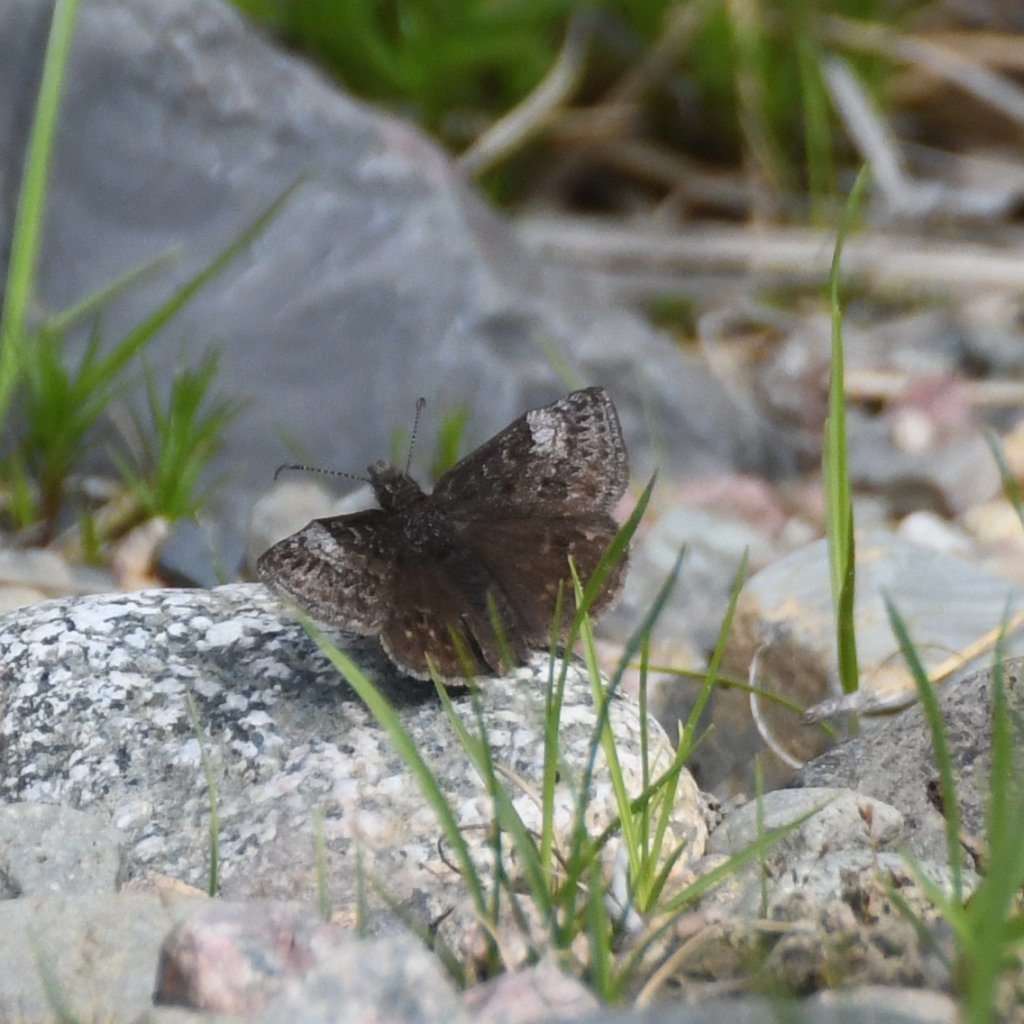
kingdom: Animalia
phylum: Arthropoda
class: Insecta
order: Lepidoptera
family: Hesperiidae
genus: Erynnis
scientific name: Erynnis icelus
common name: Dreamy Duskywing
